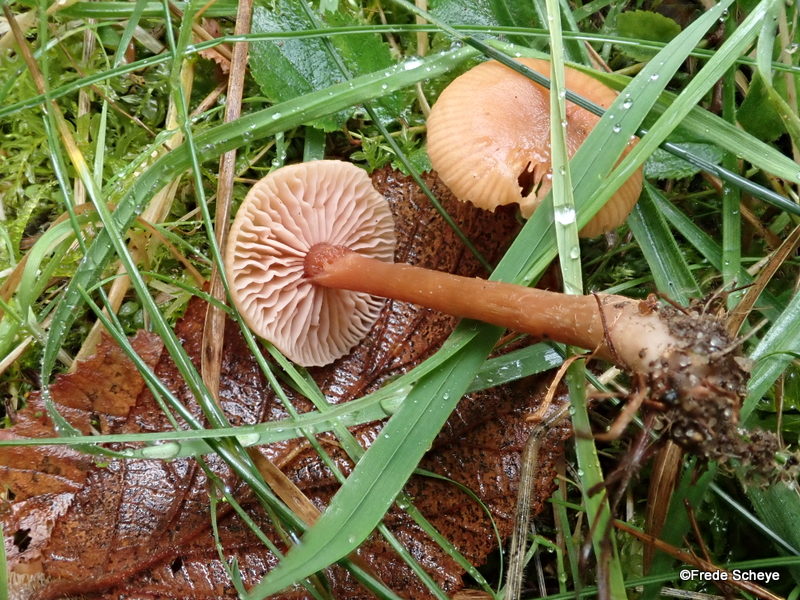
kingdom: Fungi
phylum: Basidiomycota
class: Agaricomycetes
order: Agaricales
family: Hydnangiaceae
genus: Laccaria
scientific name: Laccaria laccata
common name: rød ametysthat
